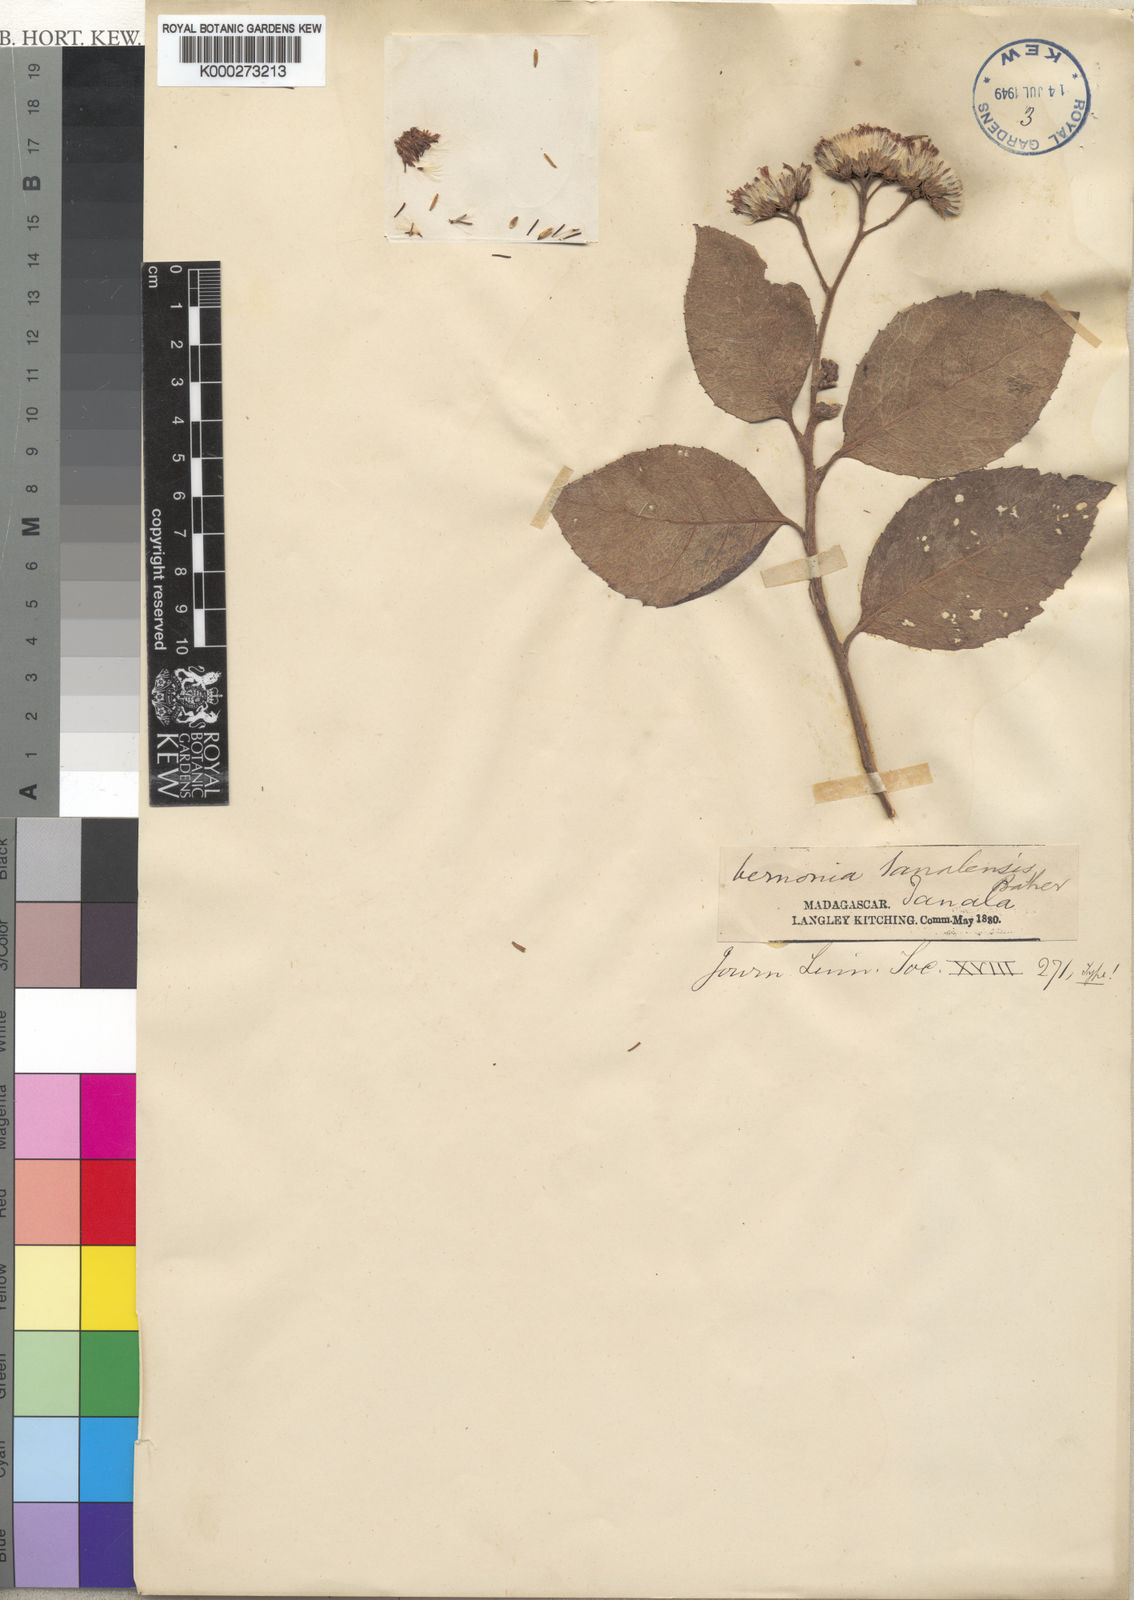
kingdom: Plantae
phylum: Tracheophyta
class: Magnoliopsida
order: Asterales
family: Asteraceae
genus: Vernonia
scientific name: Vernonia tanalensis
